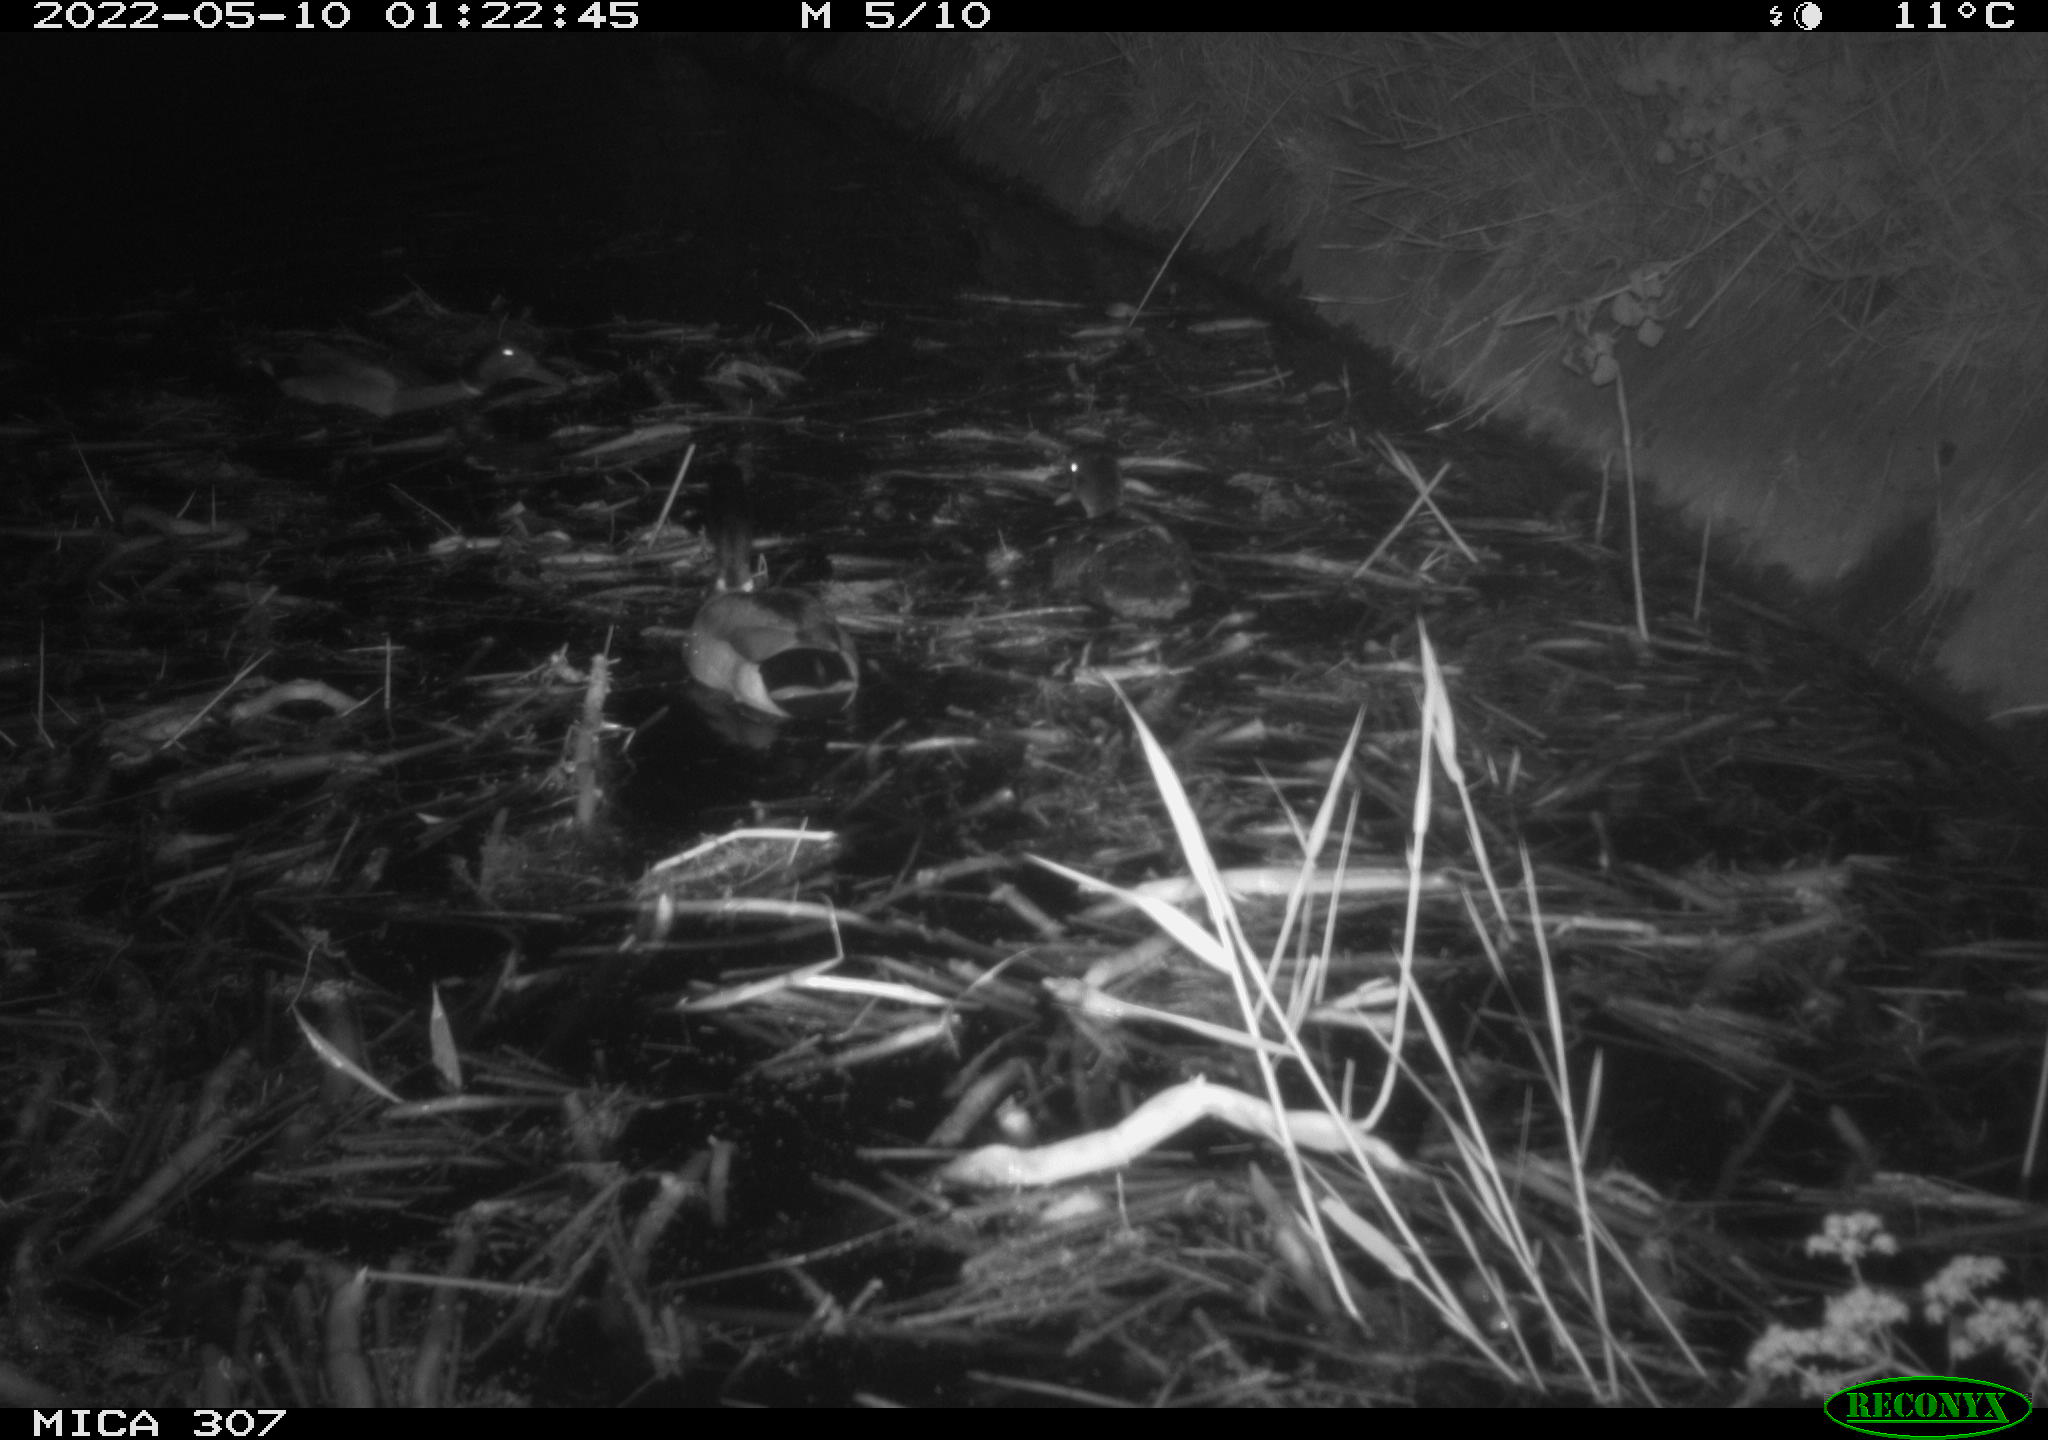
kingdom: Animalia
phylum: Chordata
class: Aves
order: Anseriformes
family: Anatidae
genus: Anas
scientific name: Anas platyrhynchos
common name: Mallard
